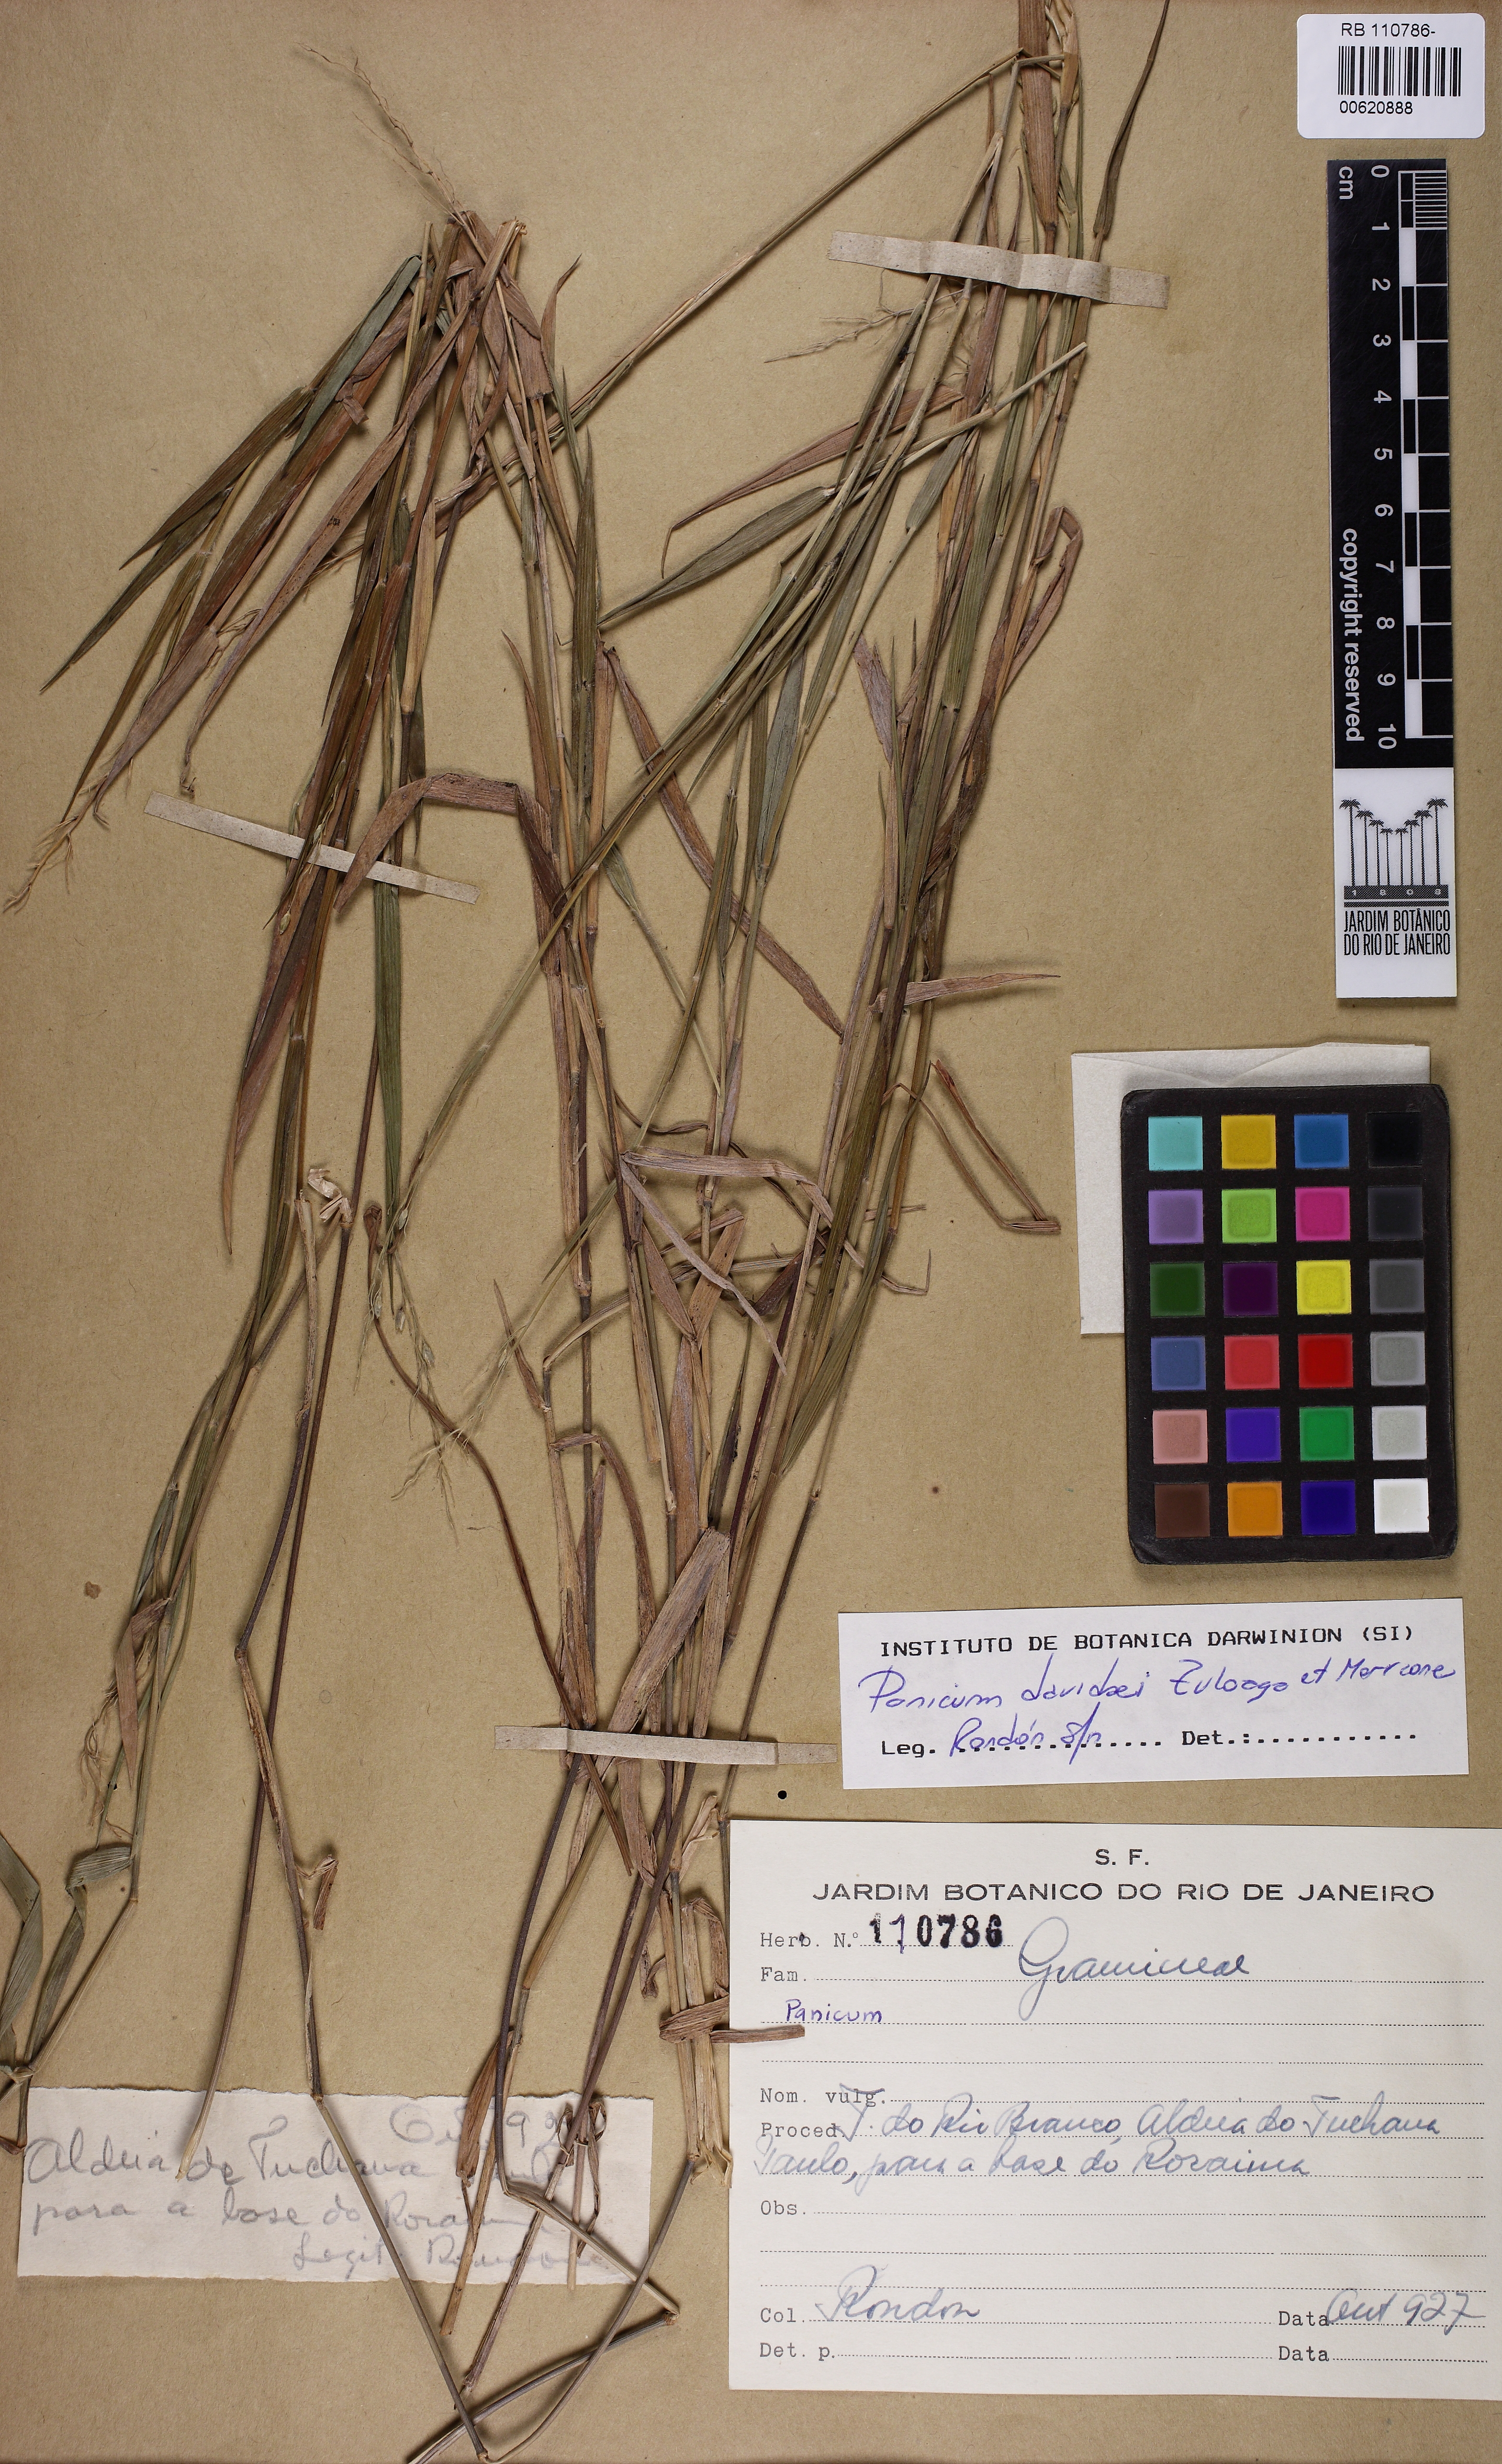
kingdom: Plantae
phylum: Tracheophyta
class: Liliopsida
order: Poales
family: Poaceae
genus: Dichanthelium
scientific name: Dichanthelium davidsei
